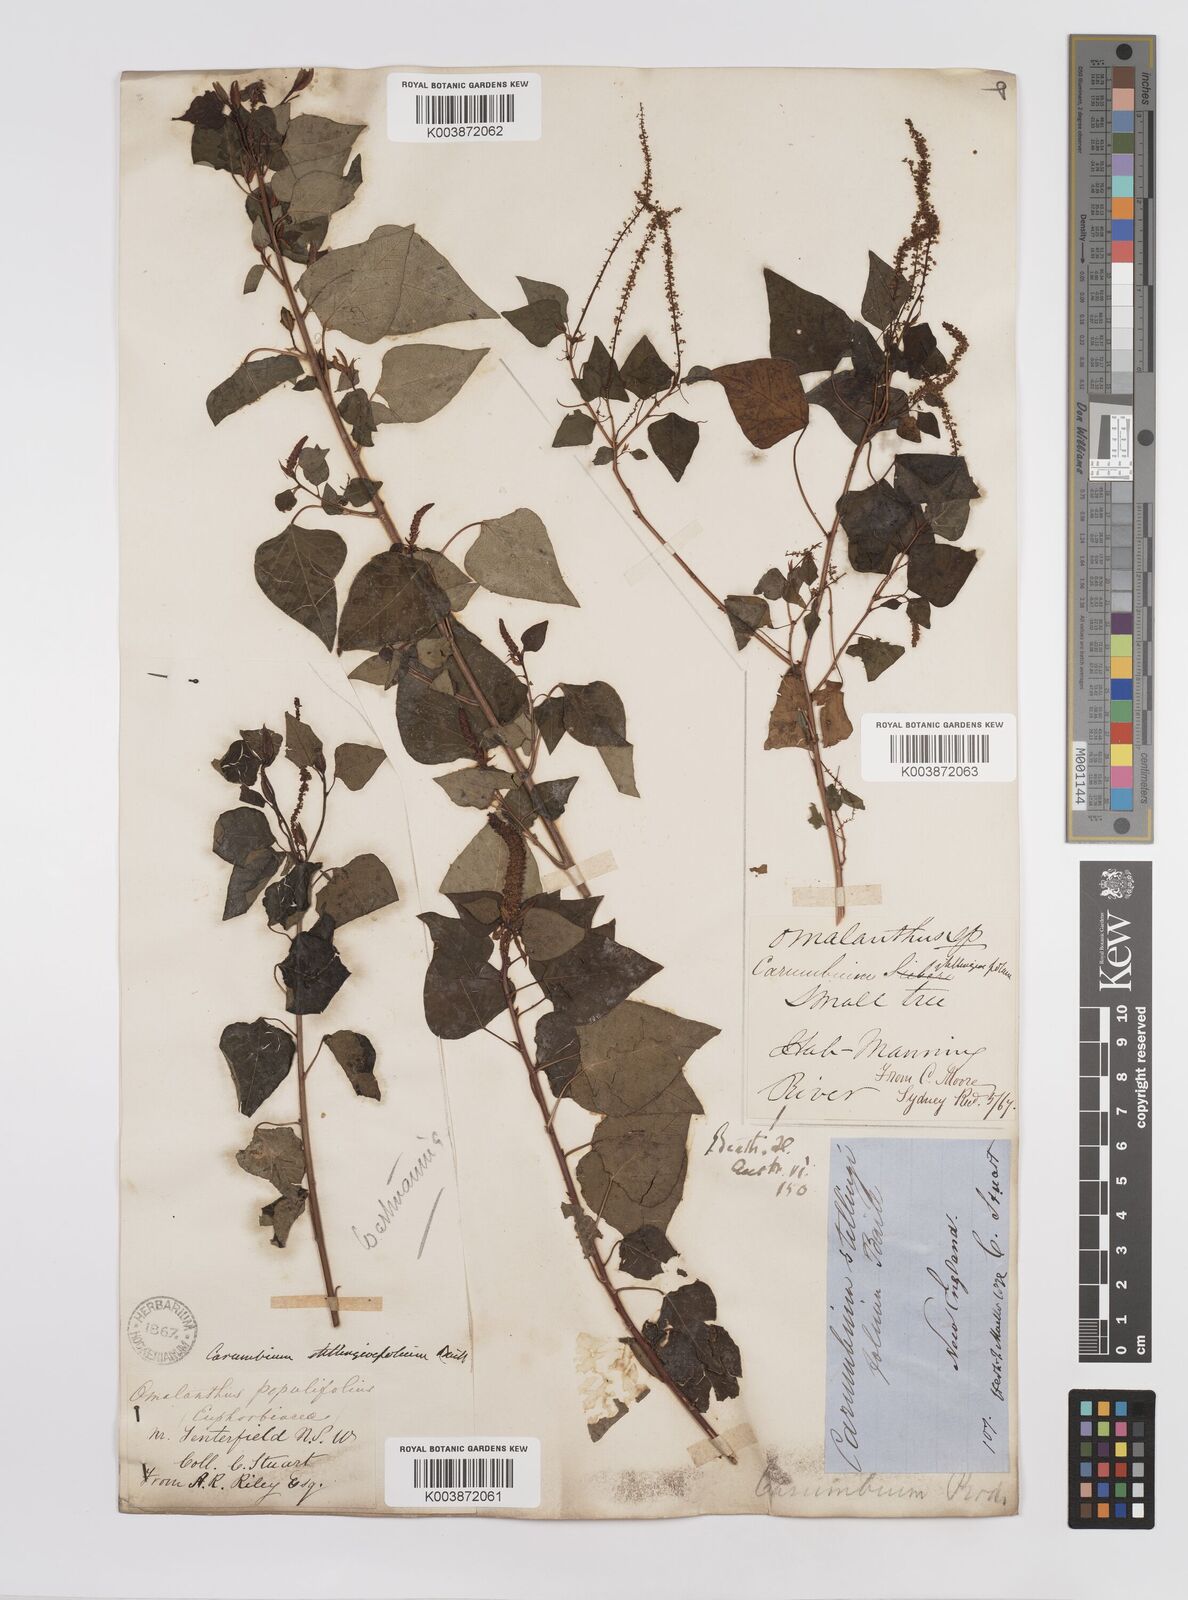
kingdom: Plantae
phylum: Tracheophyta
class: Magnoliopsida
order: Malpighiales
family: Euphorbiaceae
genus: Homalanthus
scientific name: Homalanthus stillingifolius
